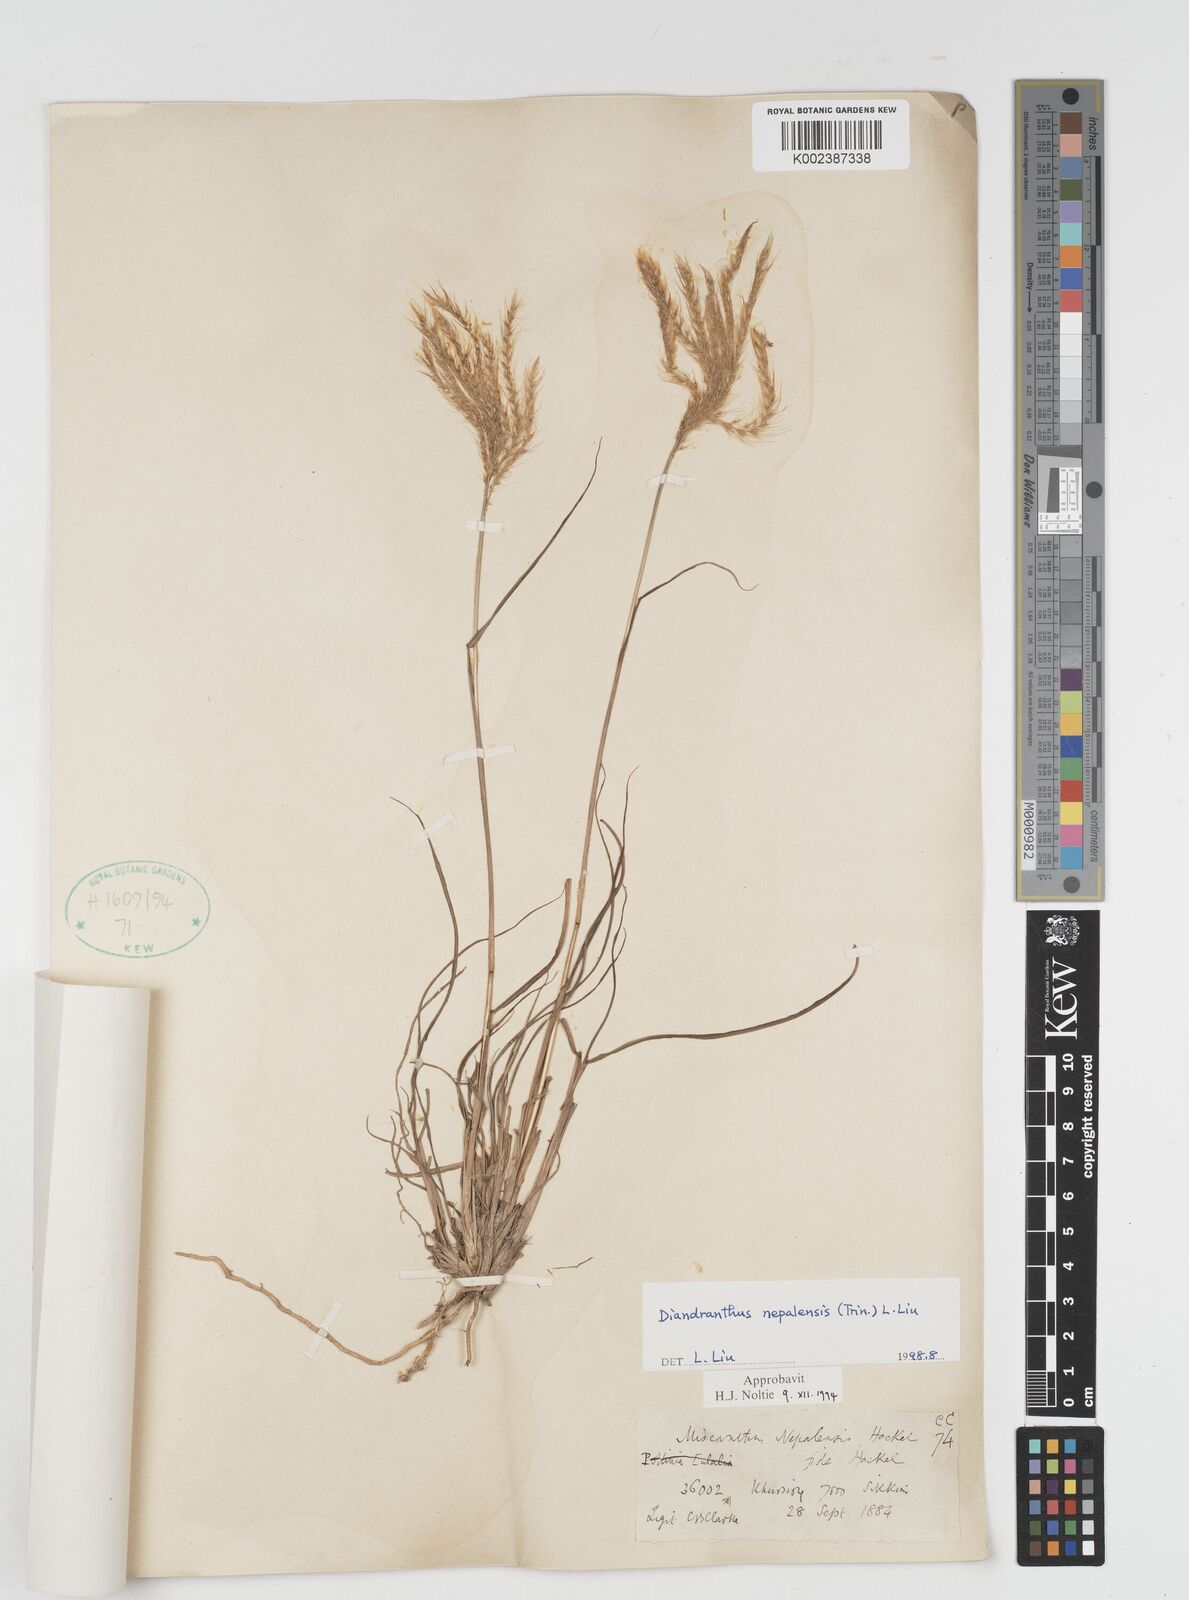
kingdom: Plantae
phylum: Tracheophyta
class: Liliopsida
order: Poales
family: Poaceae
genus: Miscanthus
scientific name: Miscanthus nepalensis
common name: Nepal silver grass
